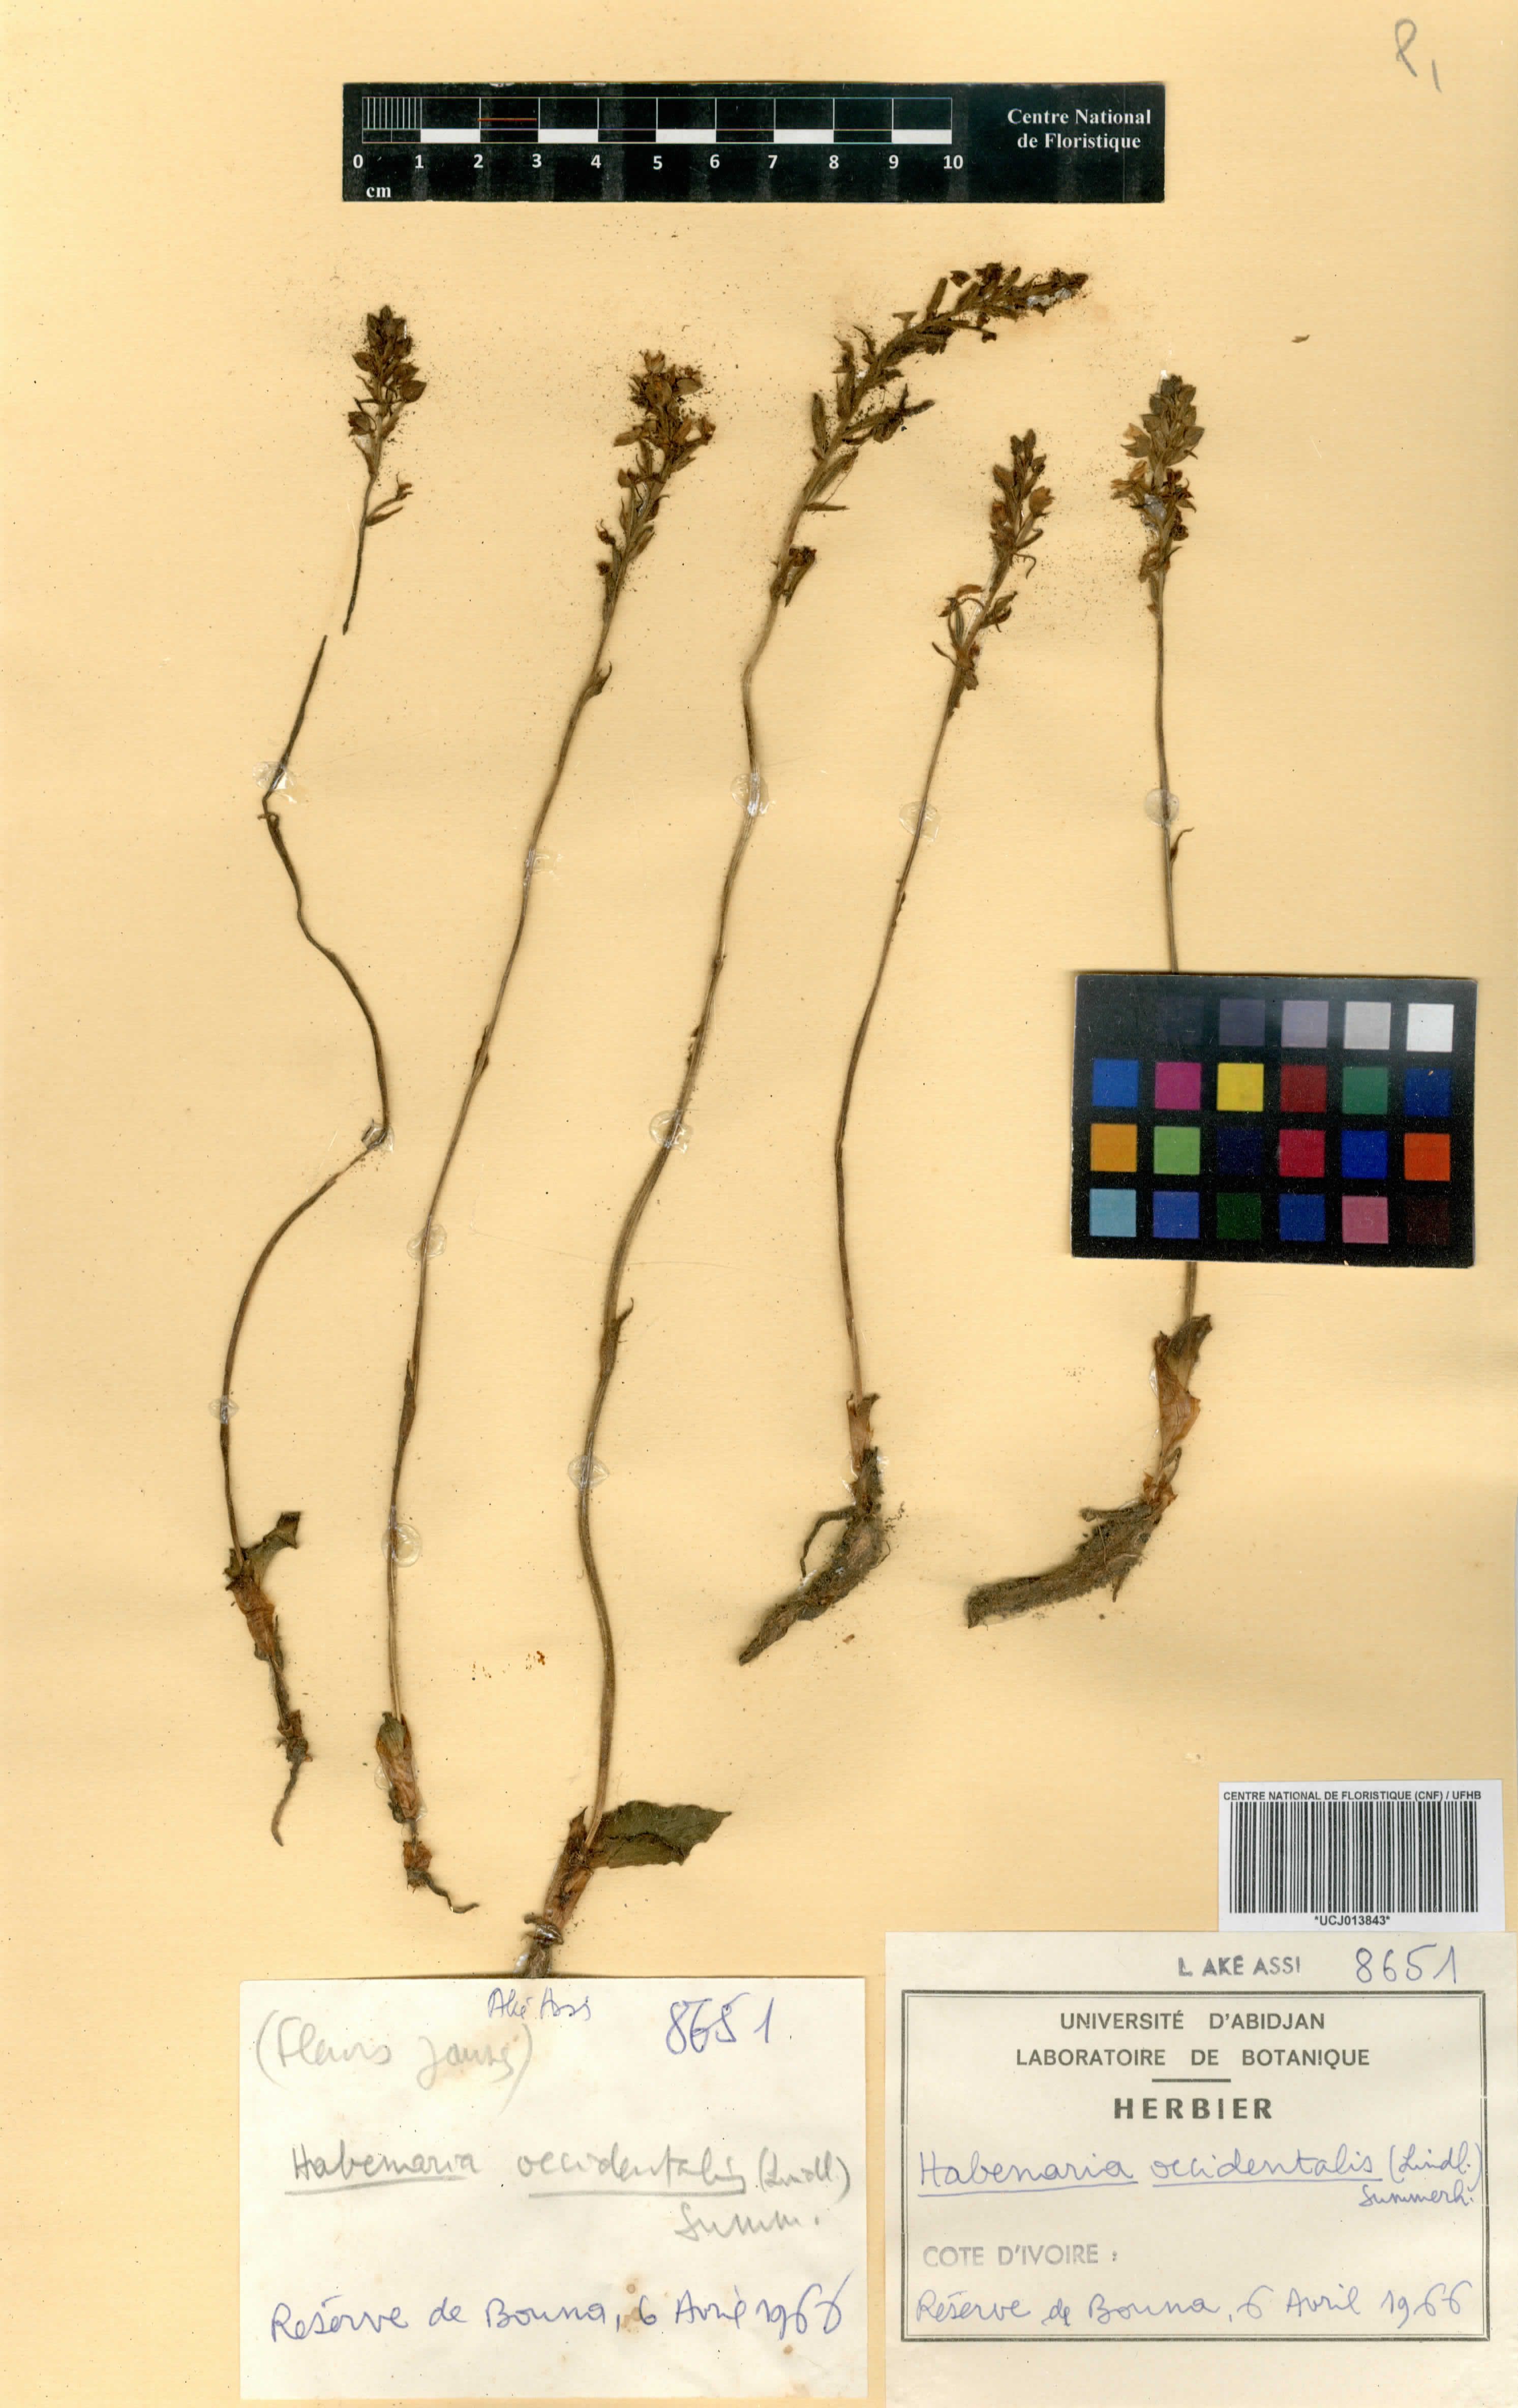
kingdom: Plantae
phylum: Tracheophyta
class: Liliopsida
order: Asparagales
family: Orchidaceae
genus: Habenaria
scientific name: Habenaria occidentalis
